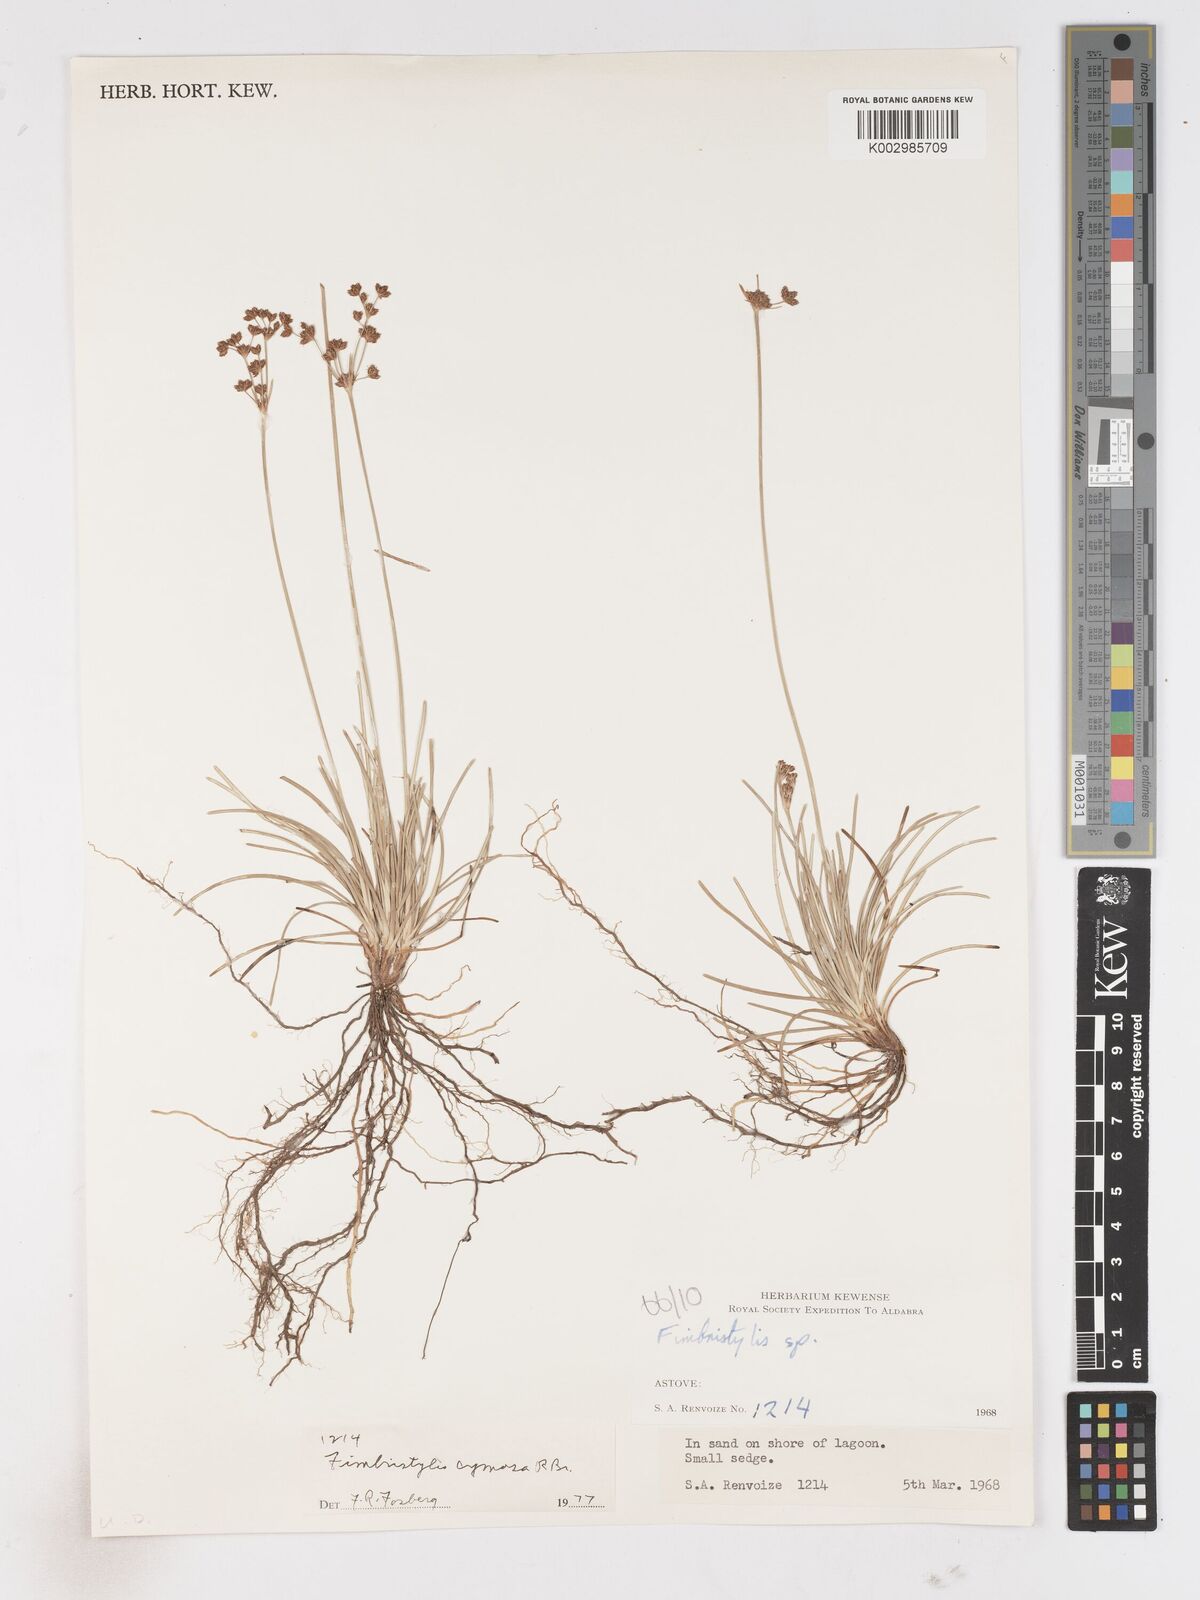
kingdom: Plantae
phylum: Tracheophyta
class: Liliopsida
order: Poales
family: Cyperaceae
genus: Fimbristylis
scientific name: Fimbristylis cymosa
